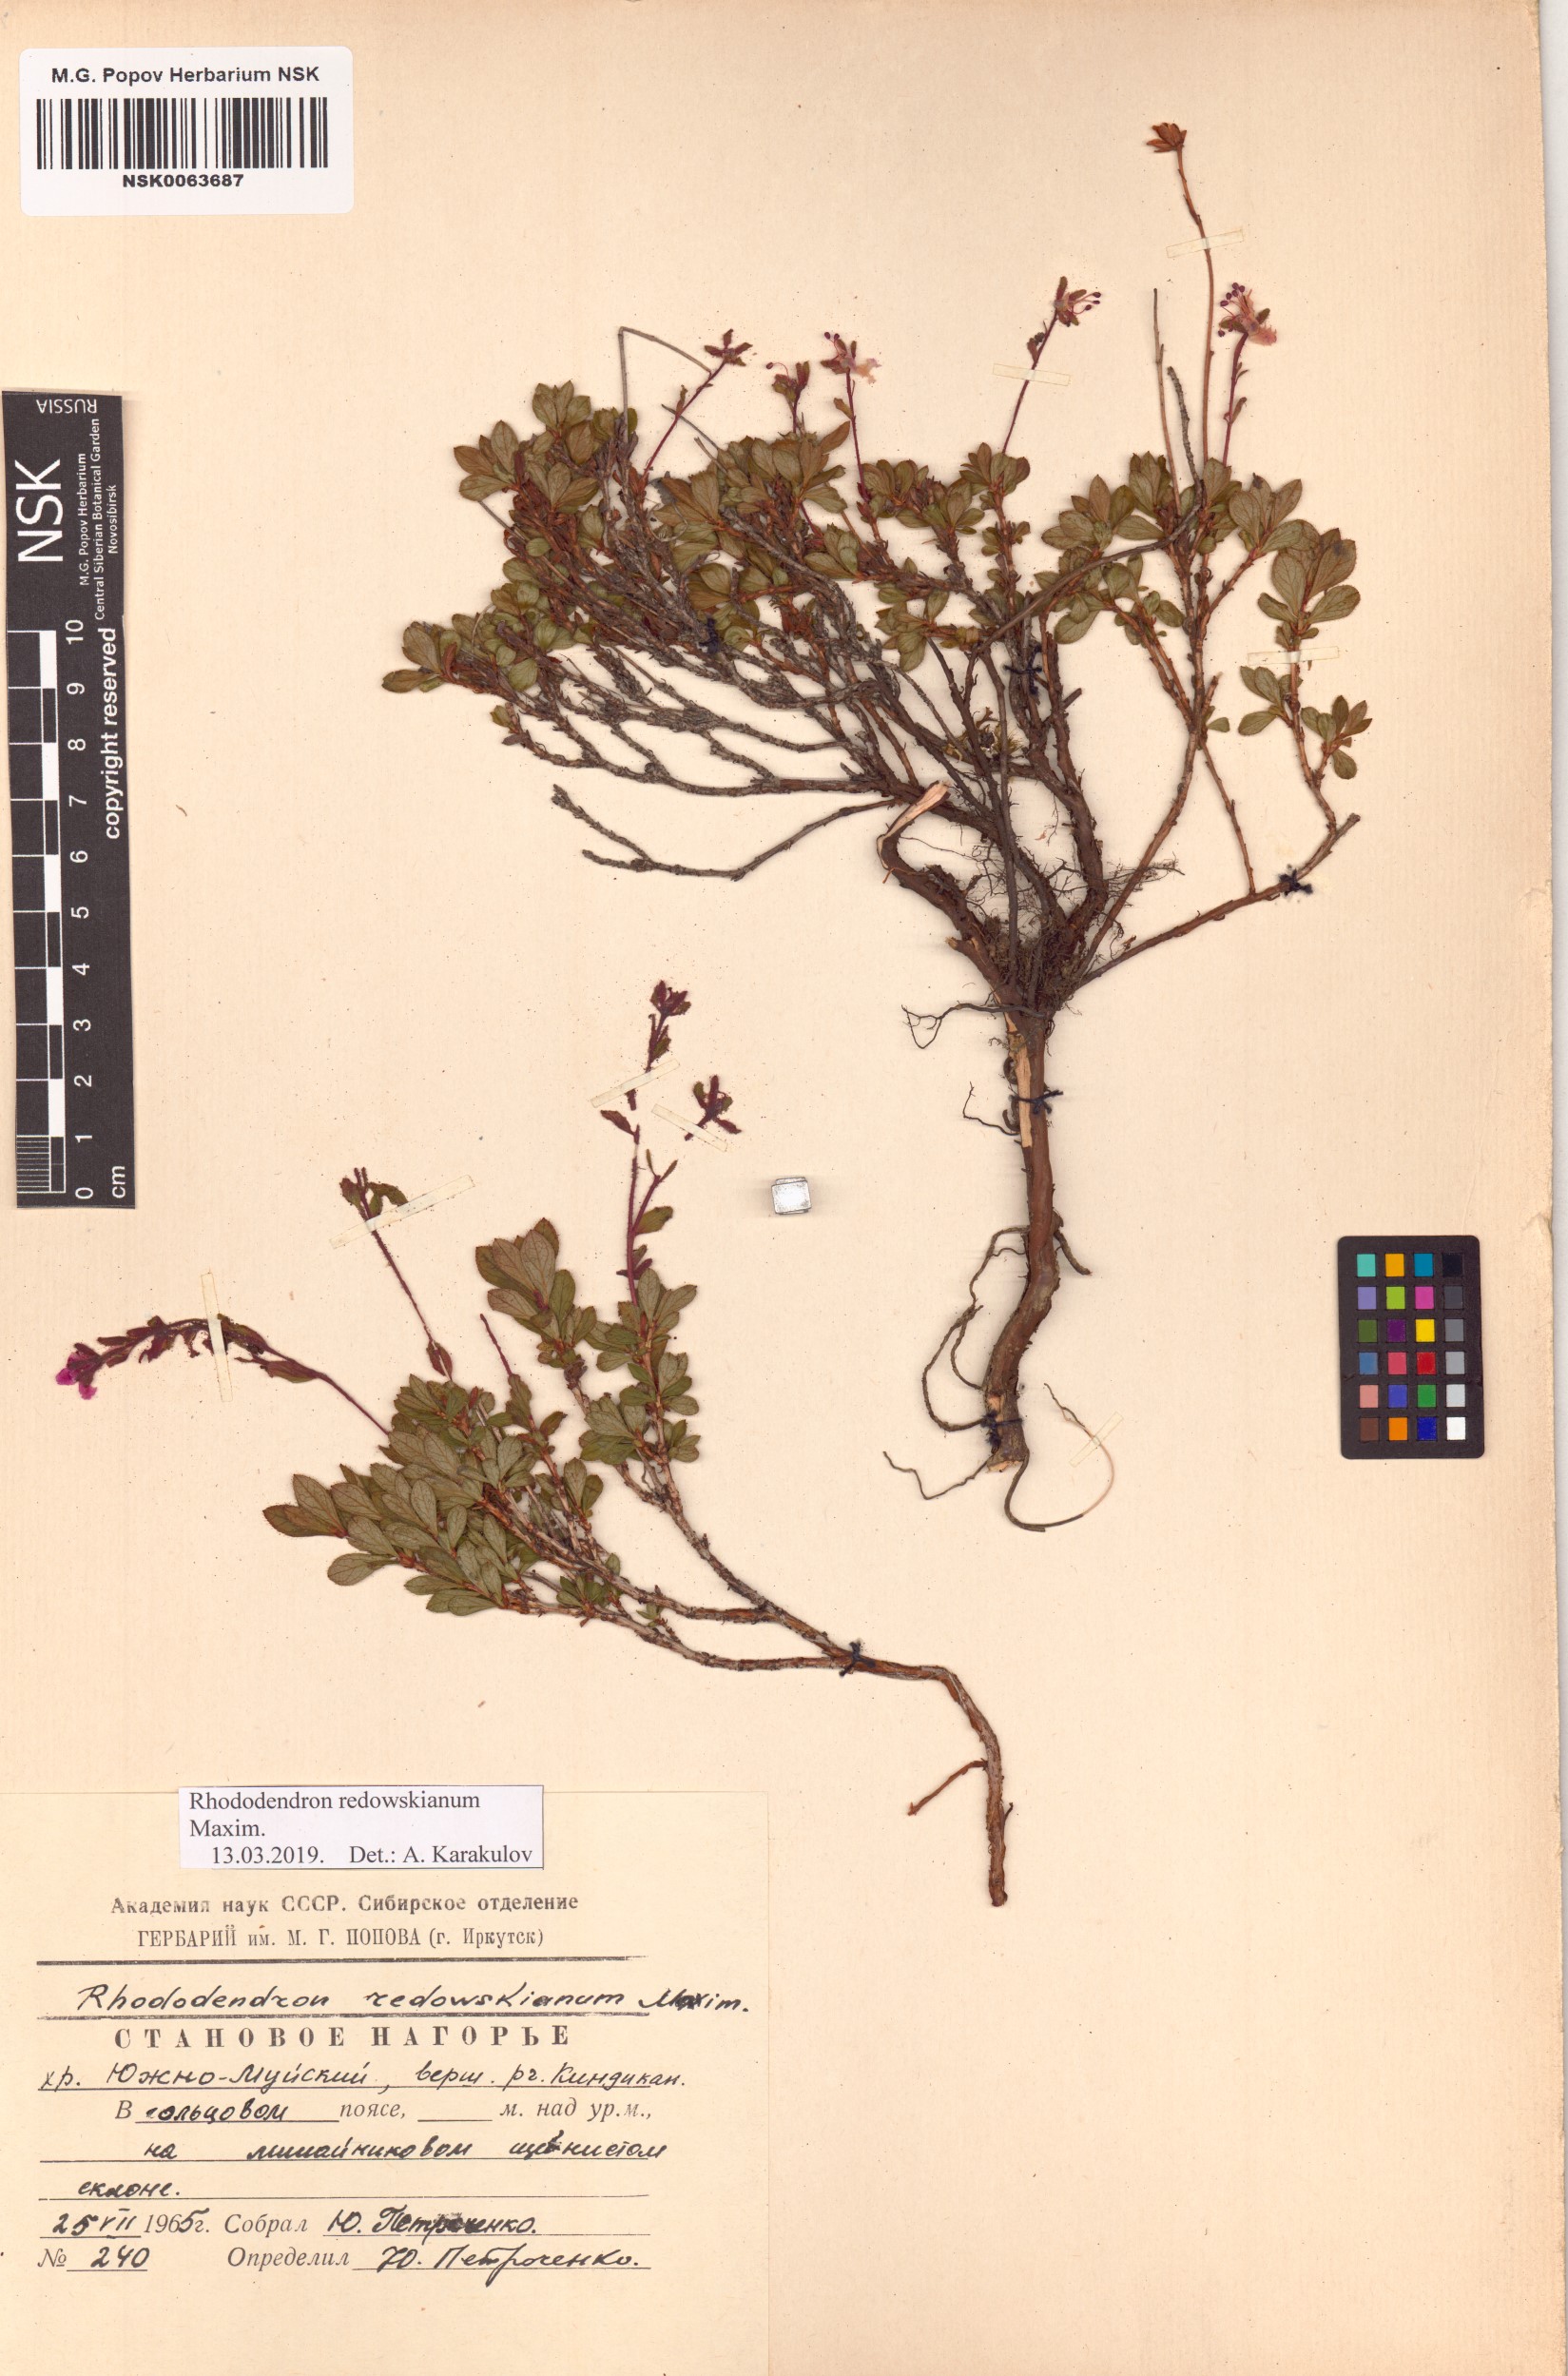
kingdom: Plantae
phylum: Tracheophyta
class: Magnoliopsida
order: Ericales
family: Ericaceae
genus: Rhododendron
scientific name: Rhododendron redowskianum
